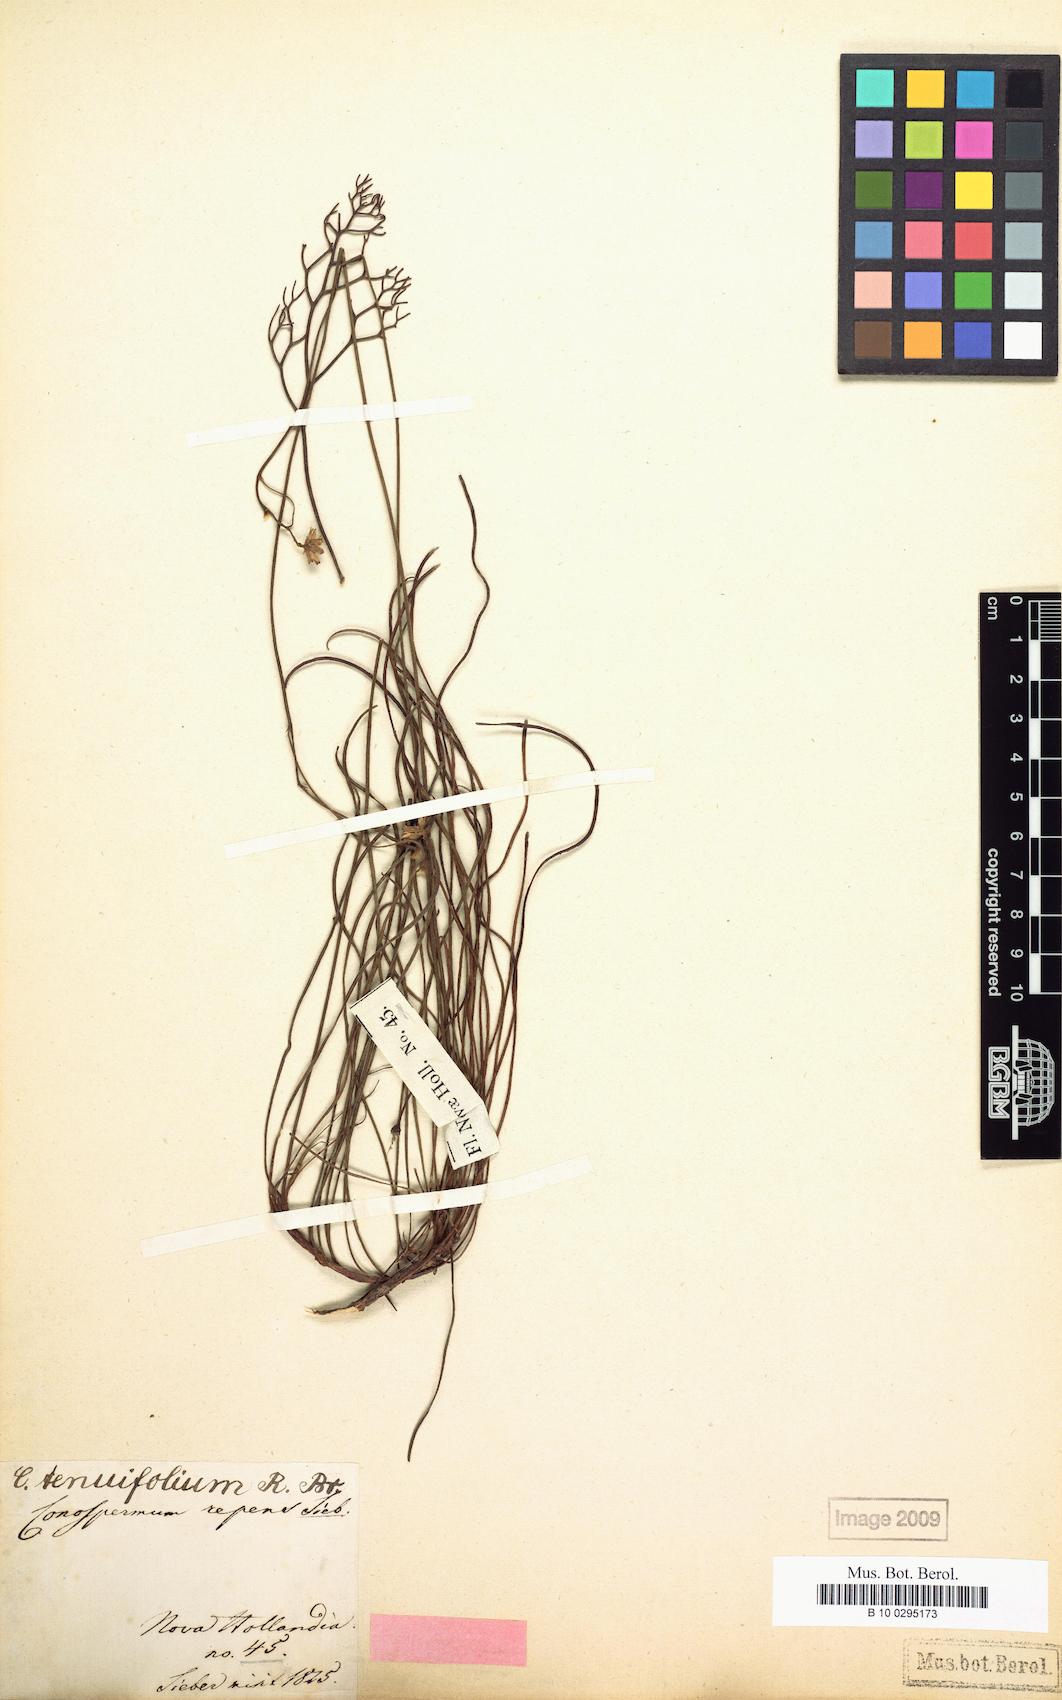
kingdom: Plantae
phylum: Tracheophyta
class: Magnoliopsida
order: Proteales
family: Proteaceae
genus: Conospermum
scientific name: Conospermum tenuifolium
